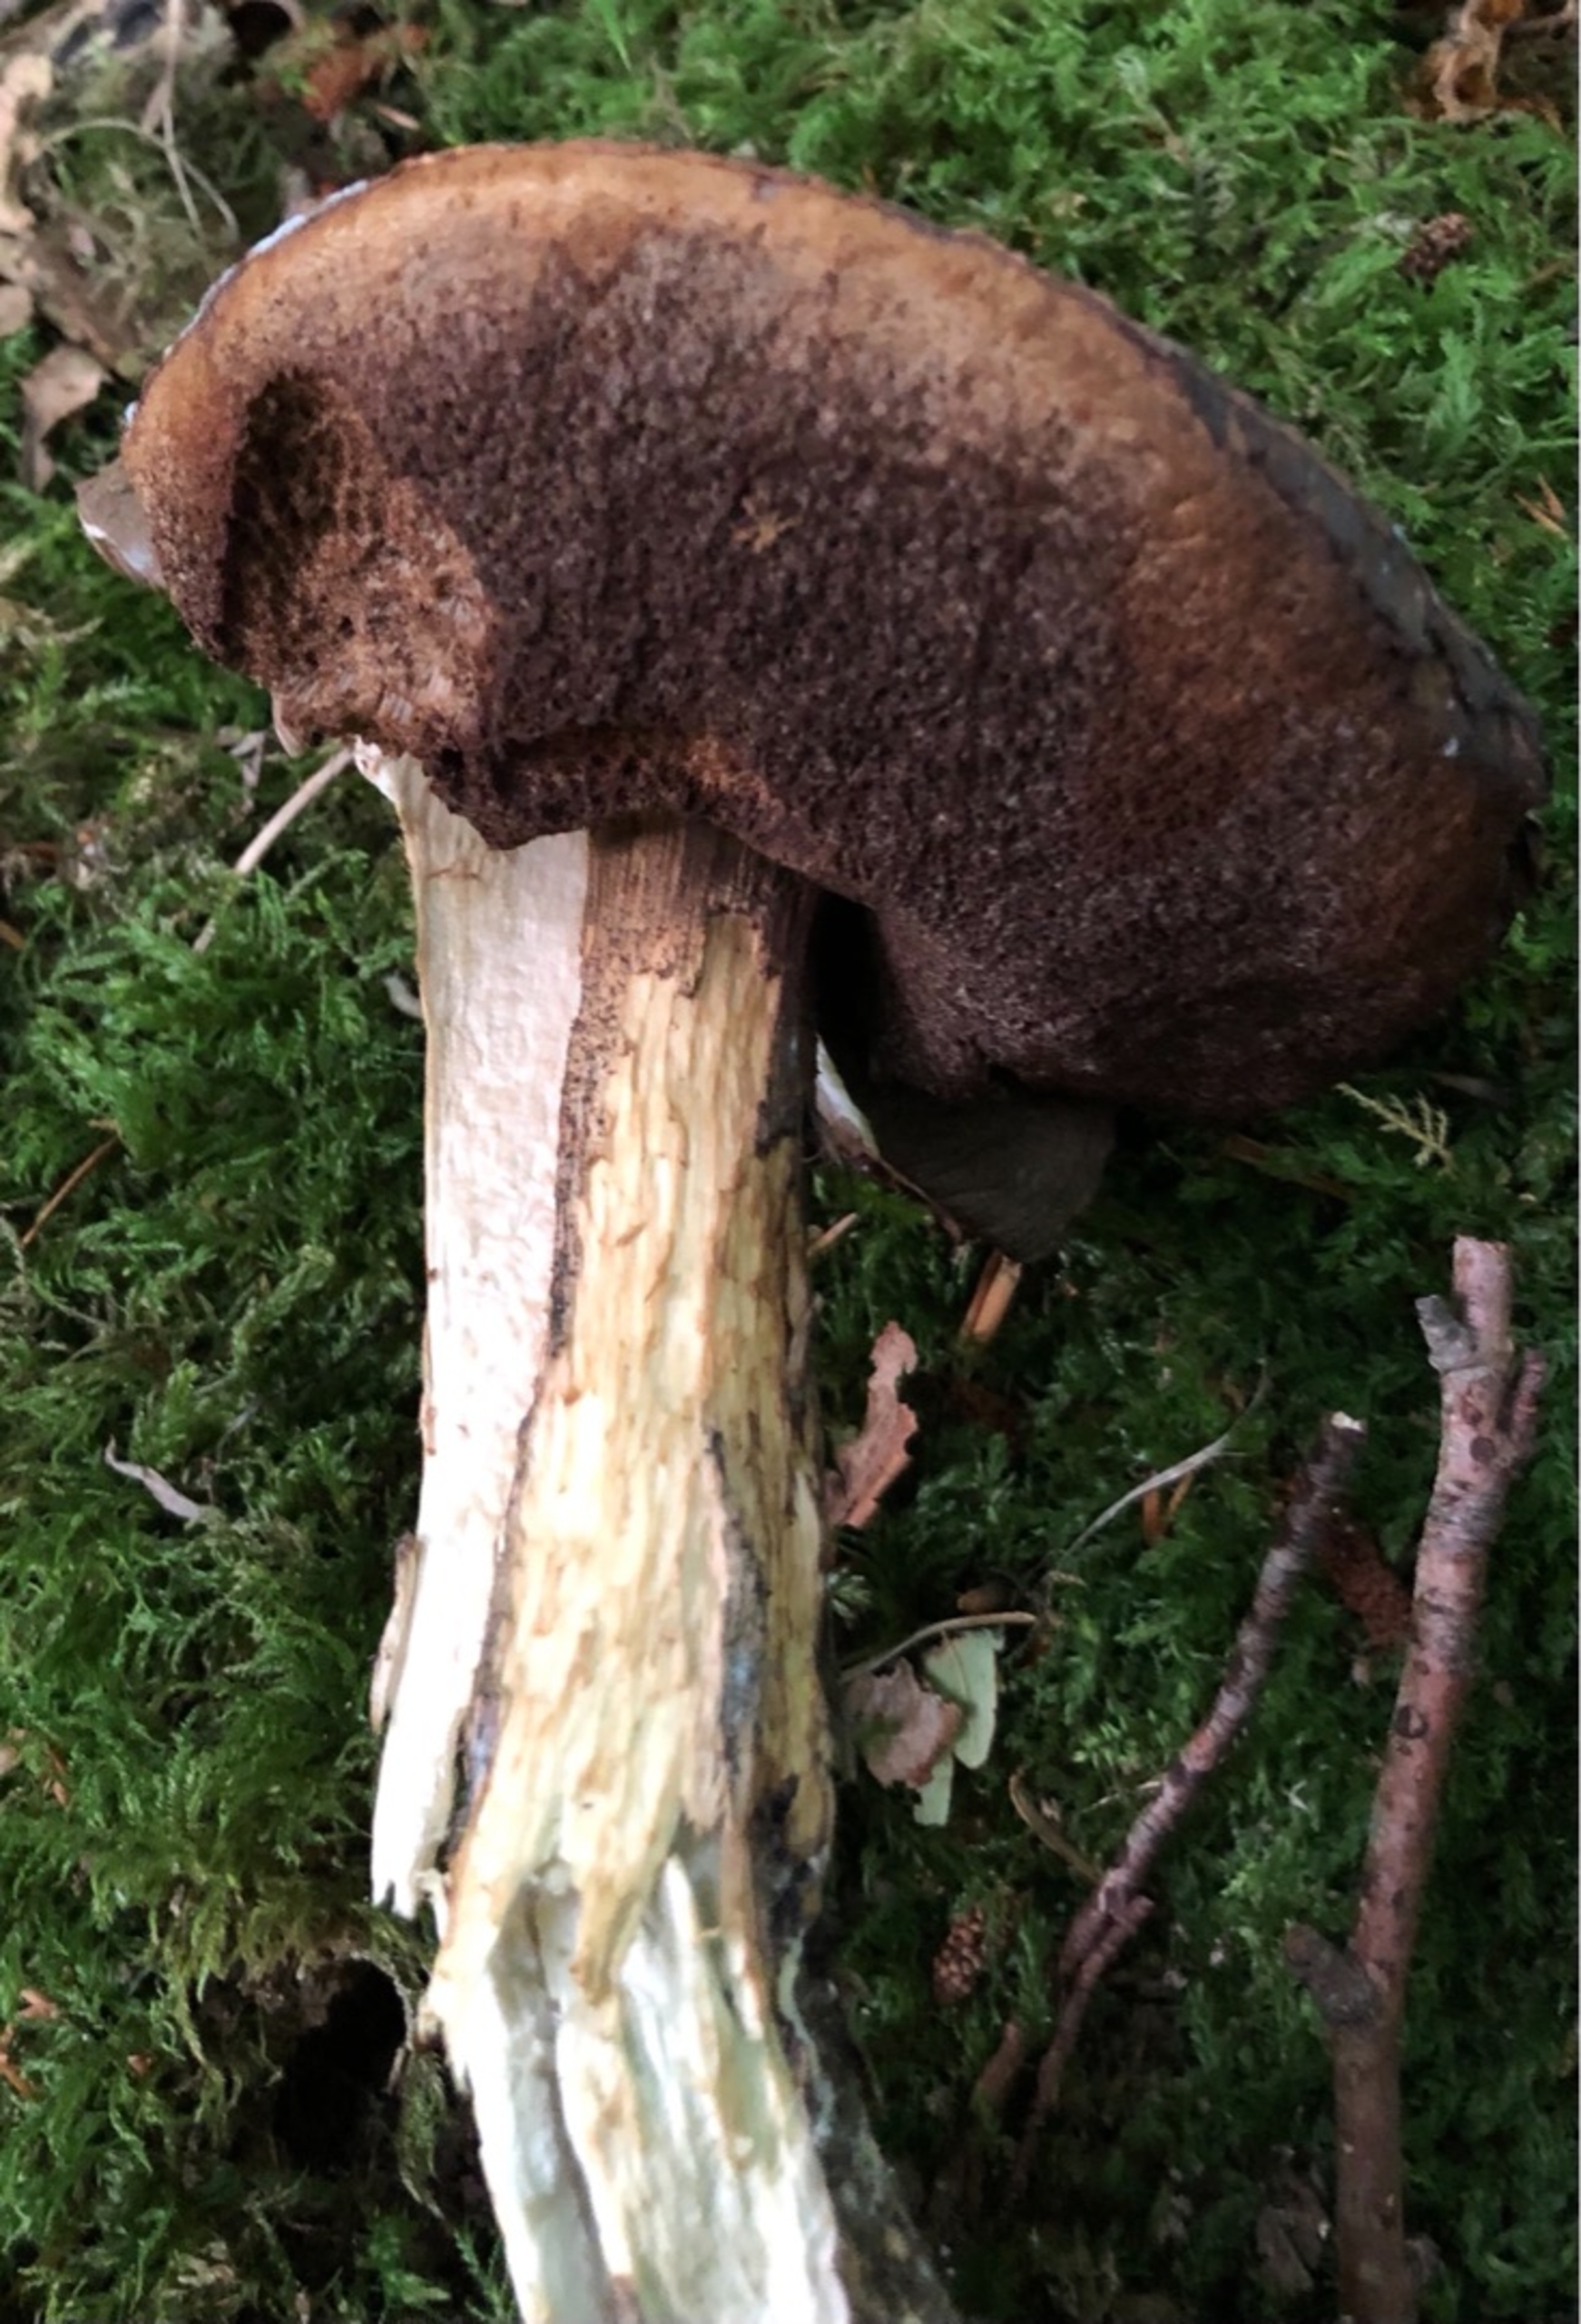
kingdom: Fungi
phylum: Basidiomycota
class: Agaricomycetes
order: Boletales
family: Boletaceae
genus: Leccinum
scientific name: Leccinum
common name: Skælrørhat
